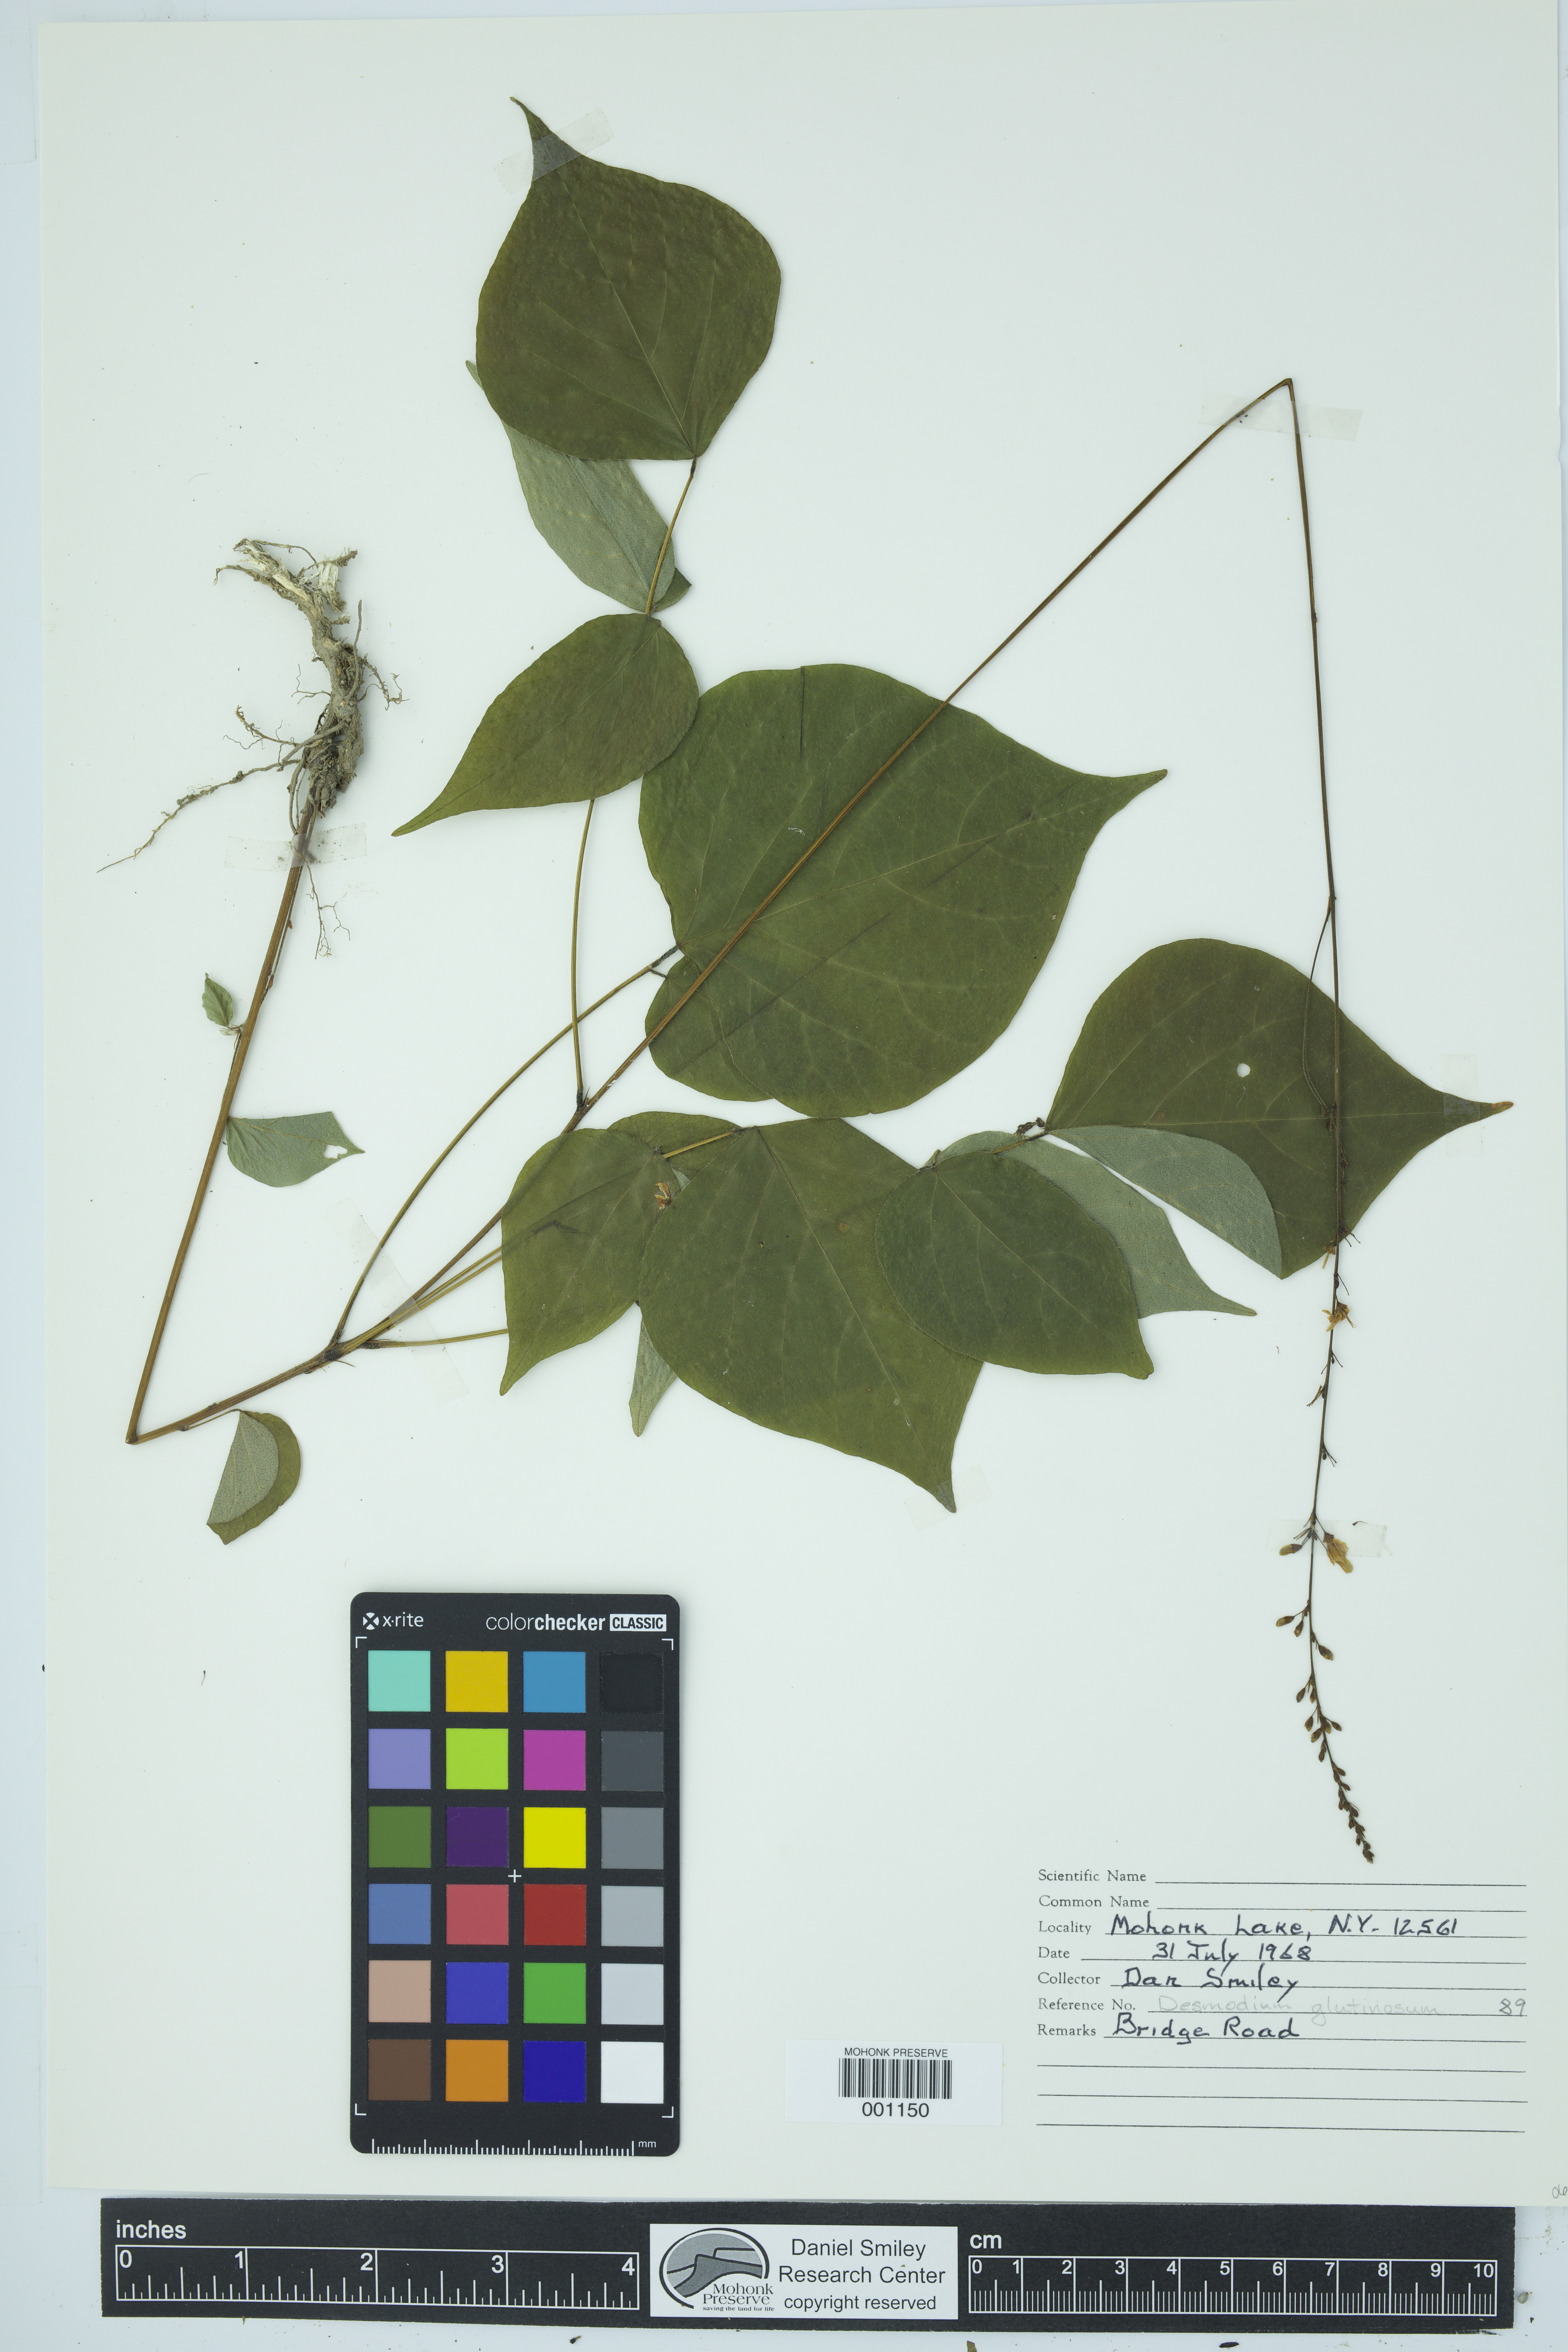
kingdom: Plantae
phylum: Tracheophyta
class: Magnoliopsida
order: Fabales
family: Fabaceae
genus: Hylodesmum
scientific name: Hylodesmum glutinosum
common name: Clustered-leaved tick-trefoil
